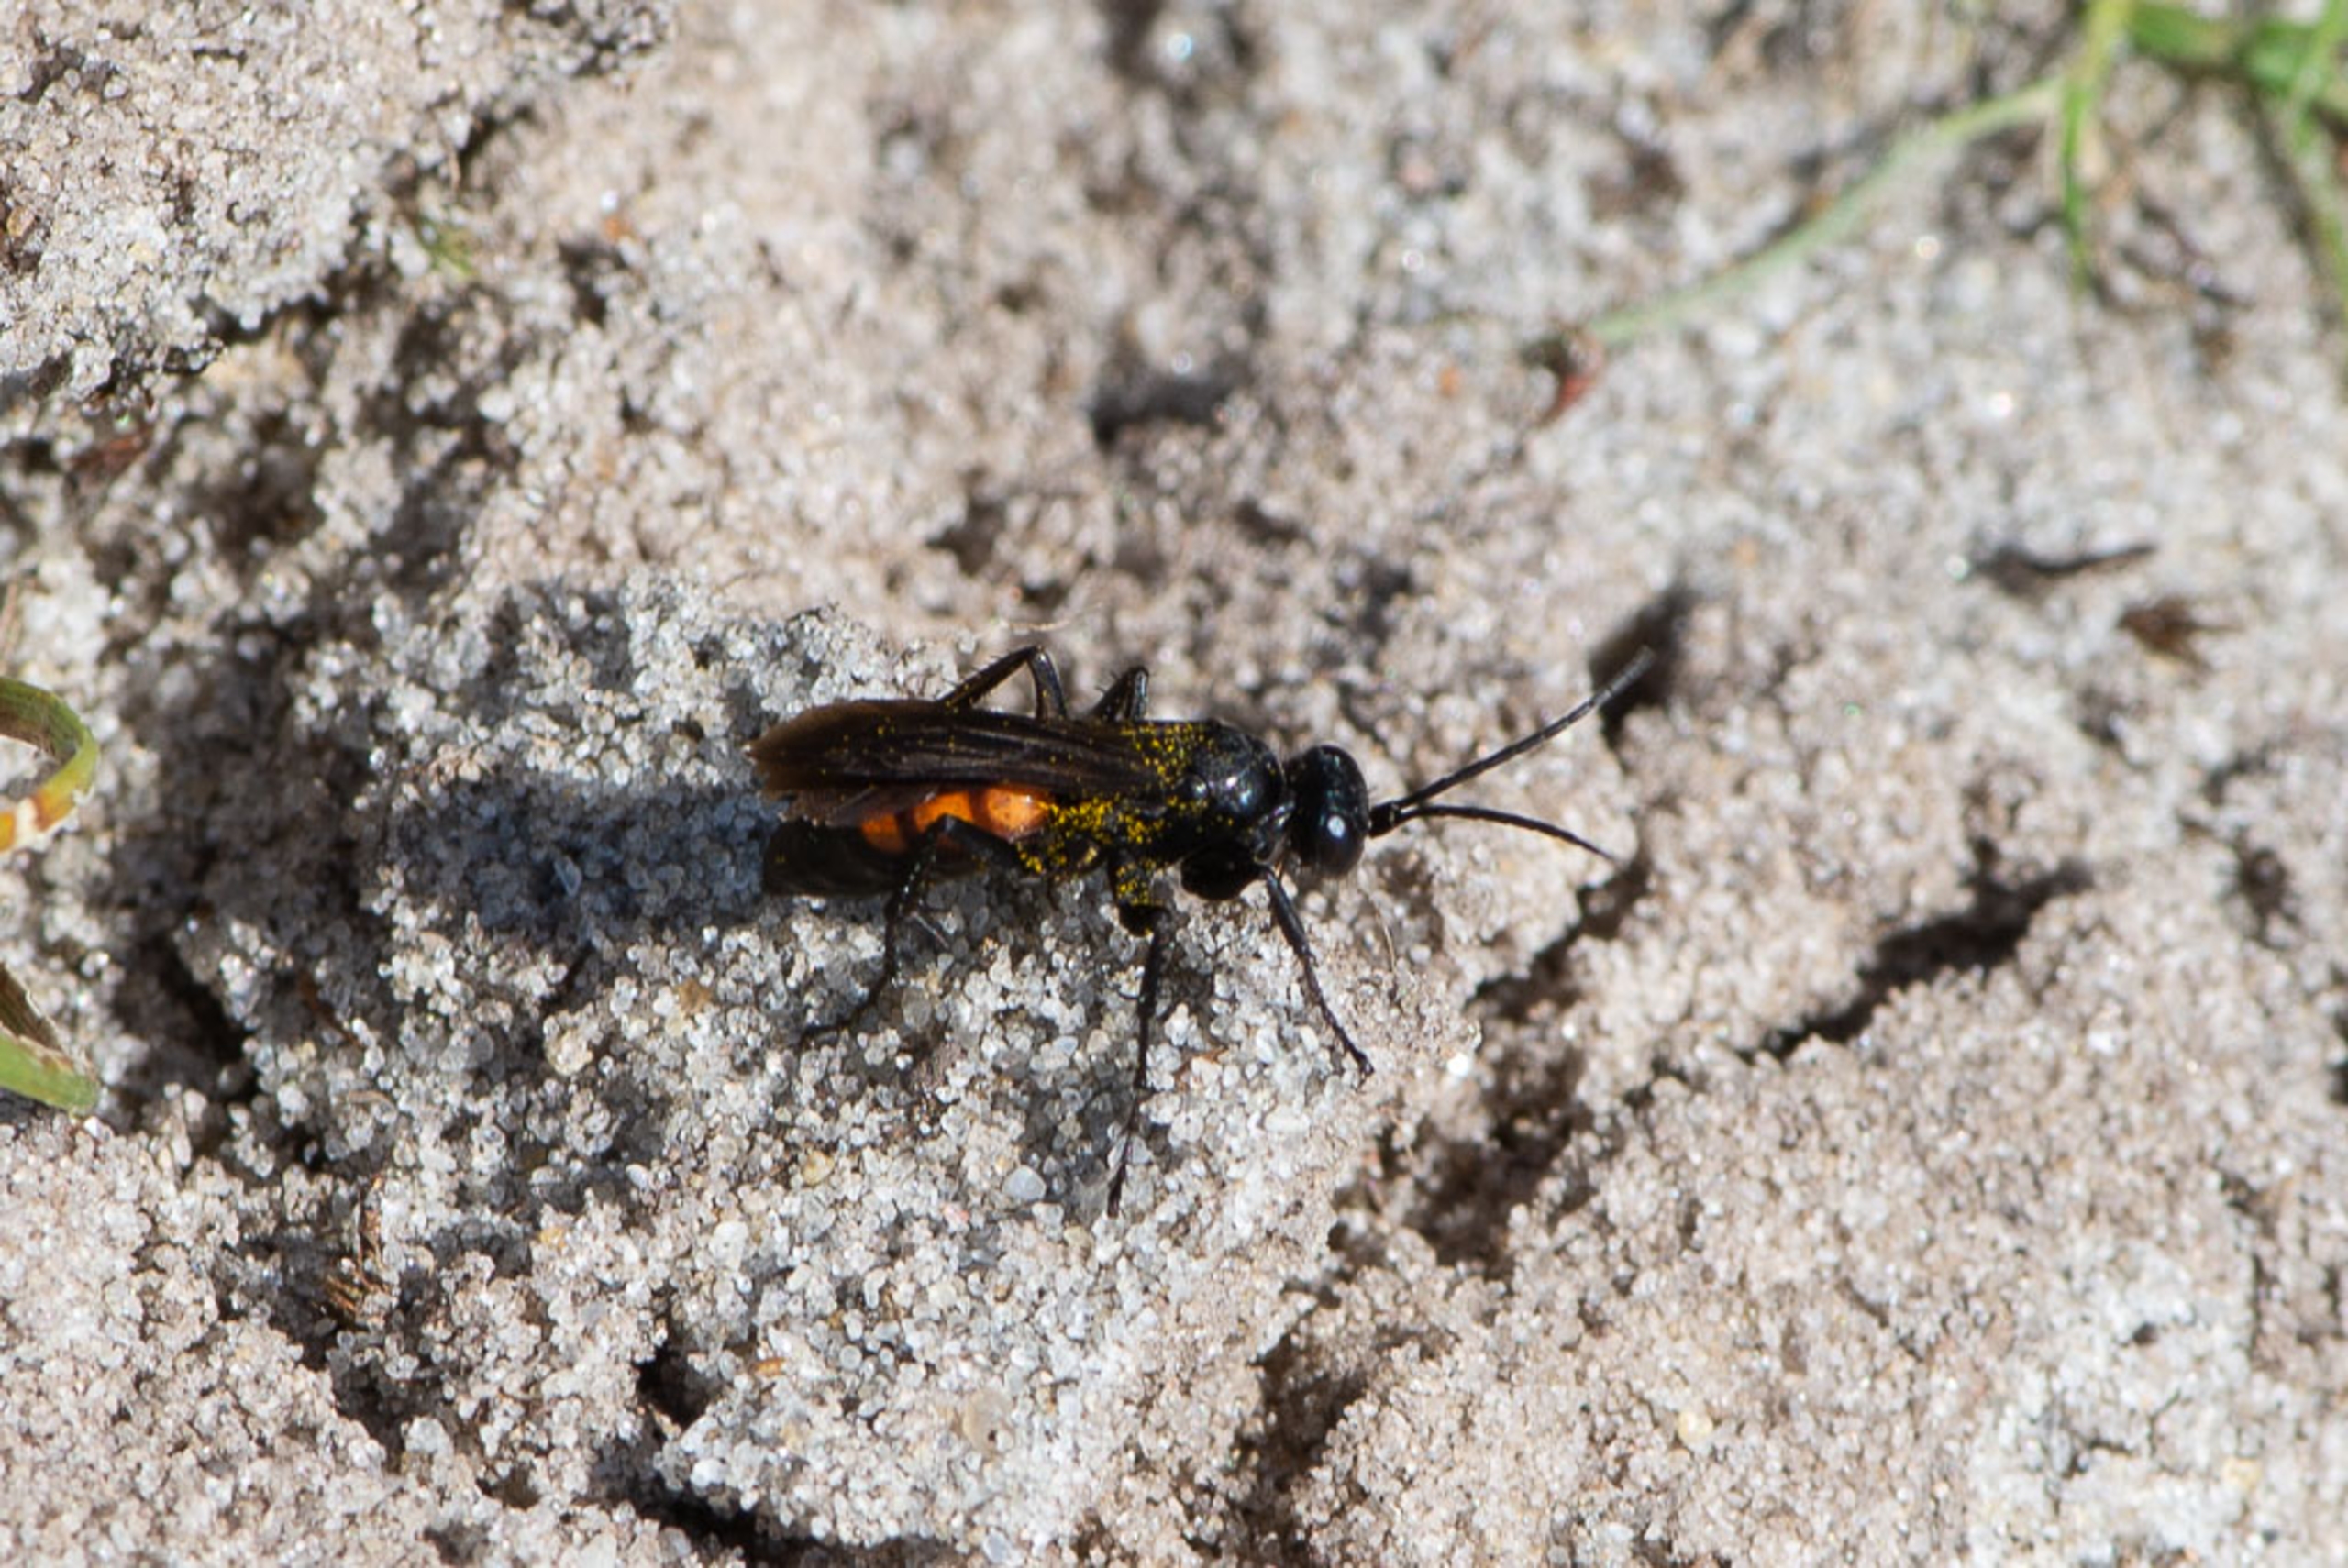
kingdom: Animalia
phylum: Arthropoda
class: Insecta
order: Hymenoptera
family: Pompilidae
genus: Anoplius
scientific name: Anoplius viaticus
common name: Almindelig vejhveps
